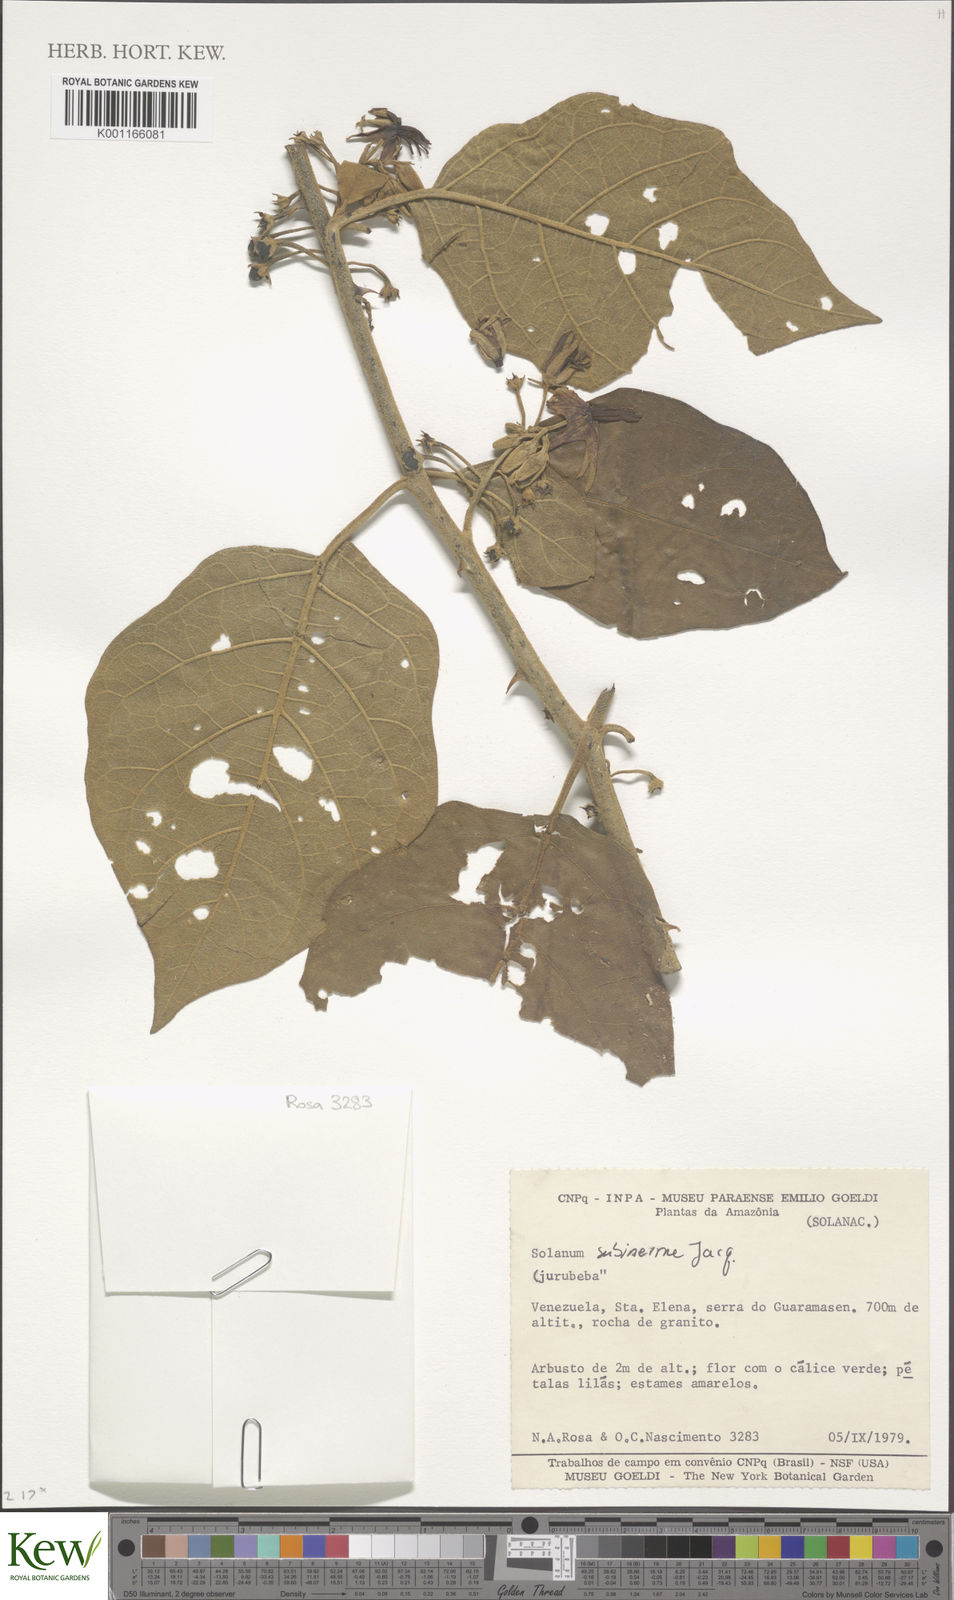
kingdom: Plantae
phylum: Tracheophyta
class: Magnoliopsida
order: Solanales
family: Solanaceae
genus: Solanum
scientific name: Solanum subinerme
